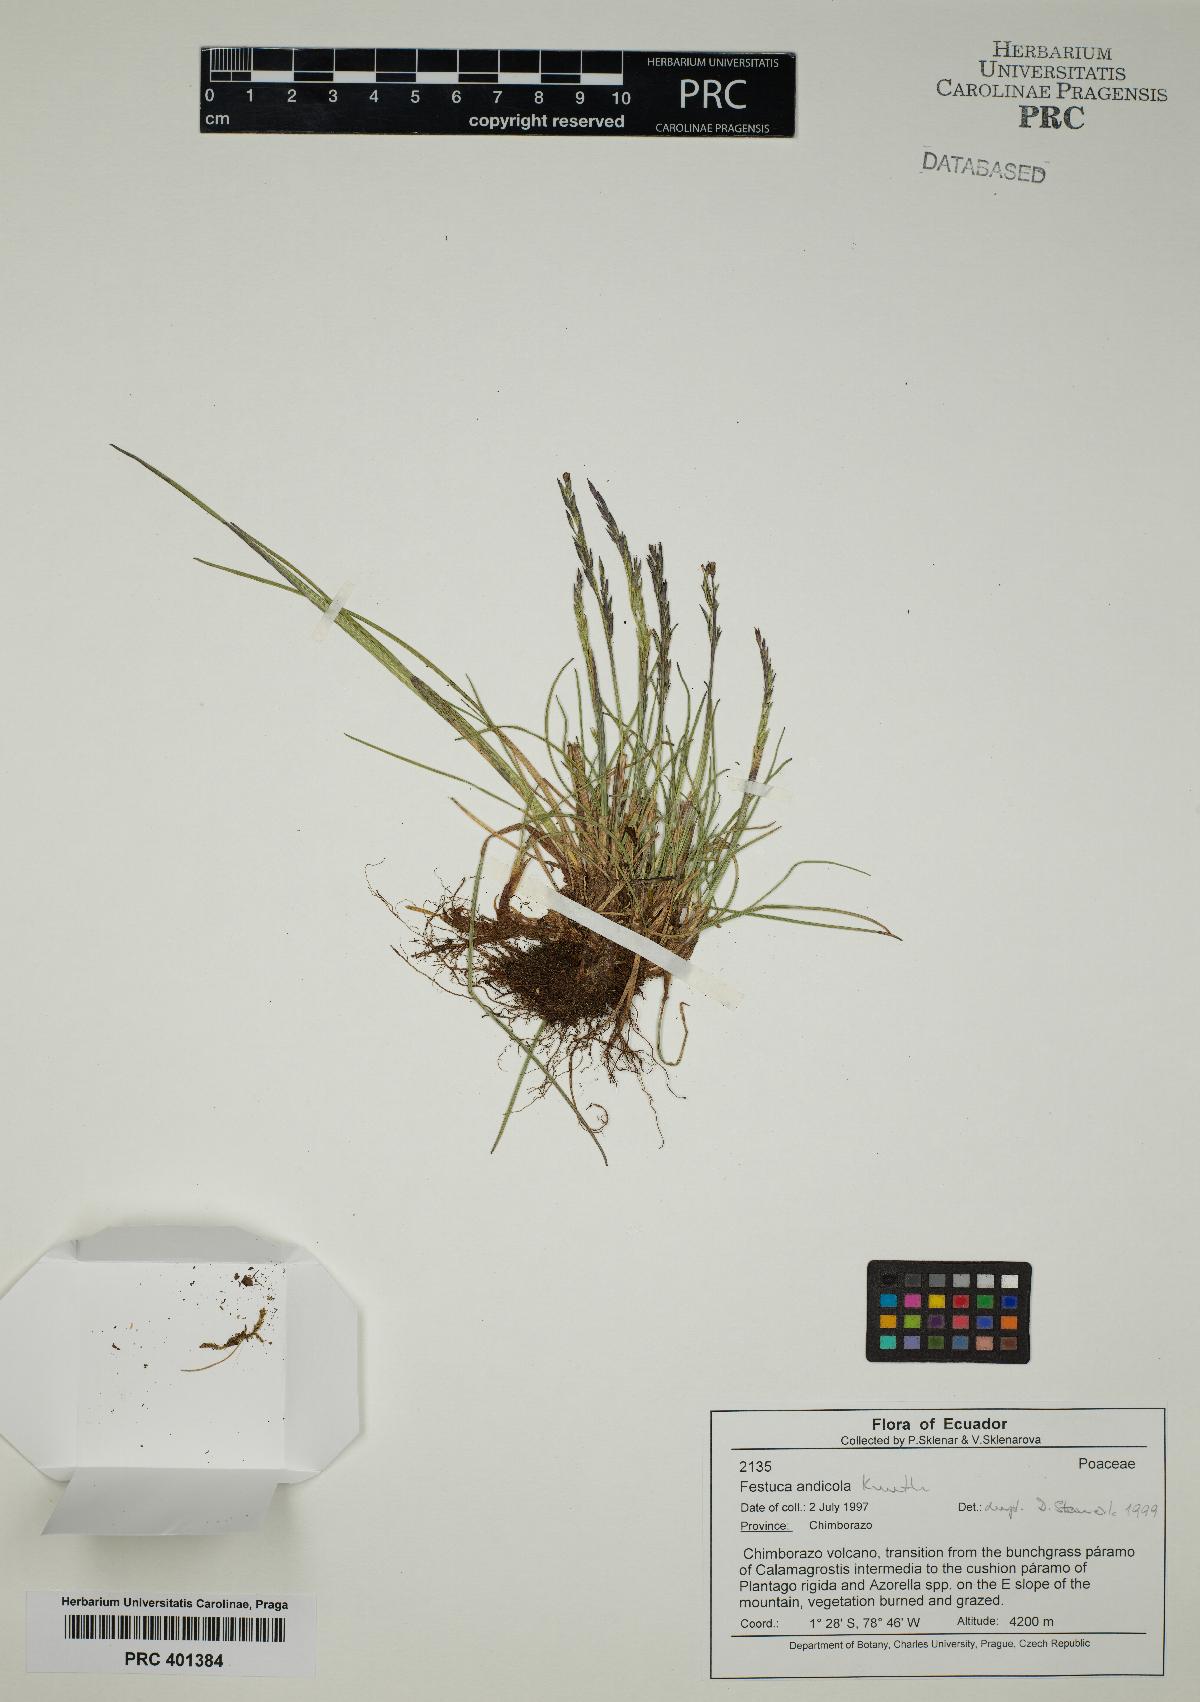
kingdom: Plantae
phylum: Tracheophyta
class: Liliopsida
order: Poales
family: Poaceae
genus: Festuca
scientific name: Festuca andicola
